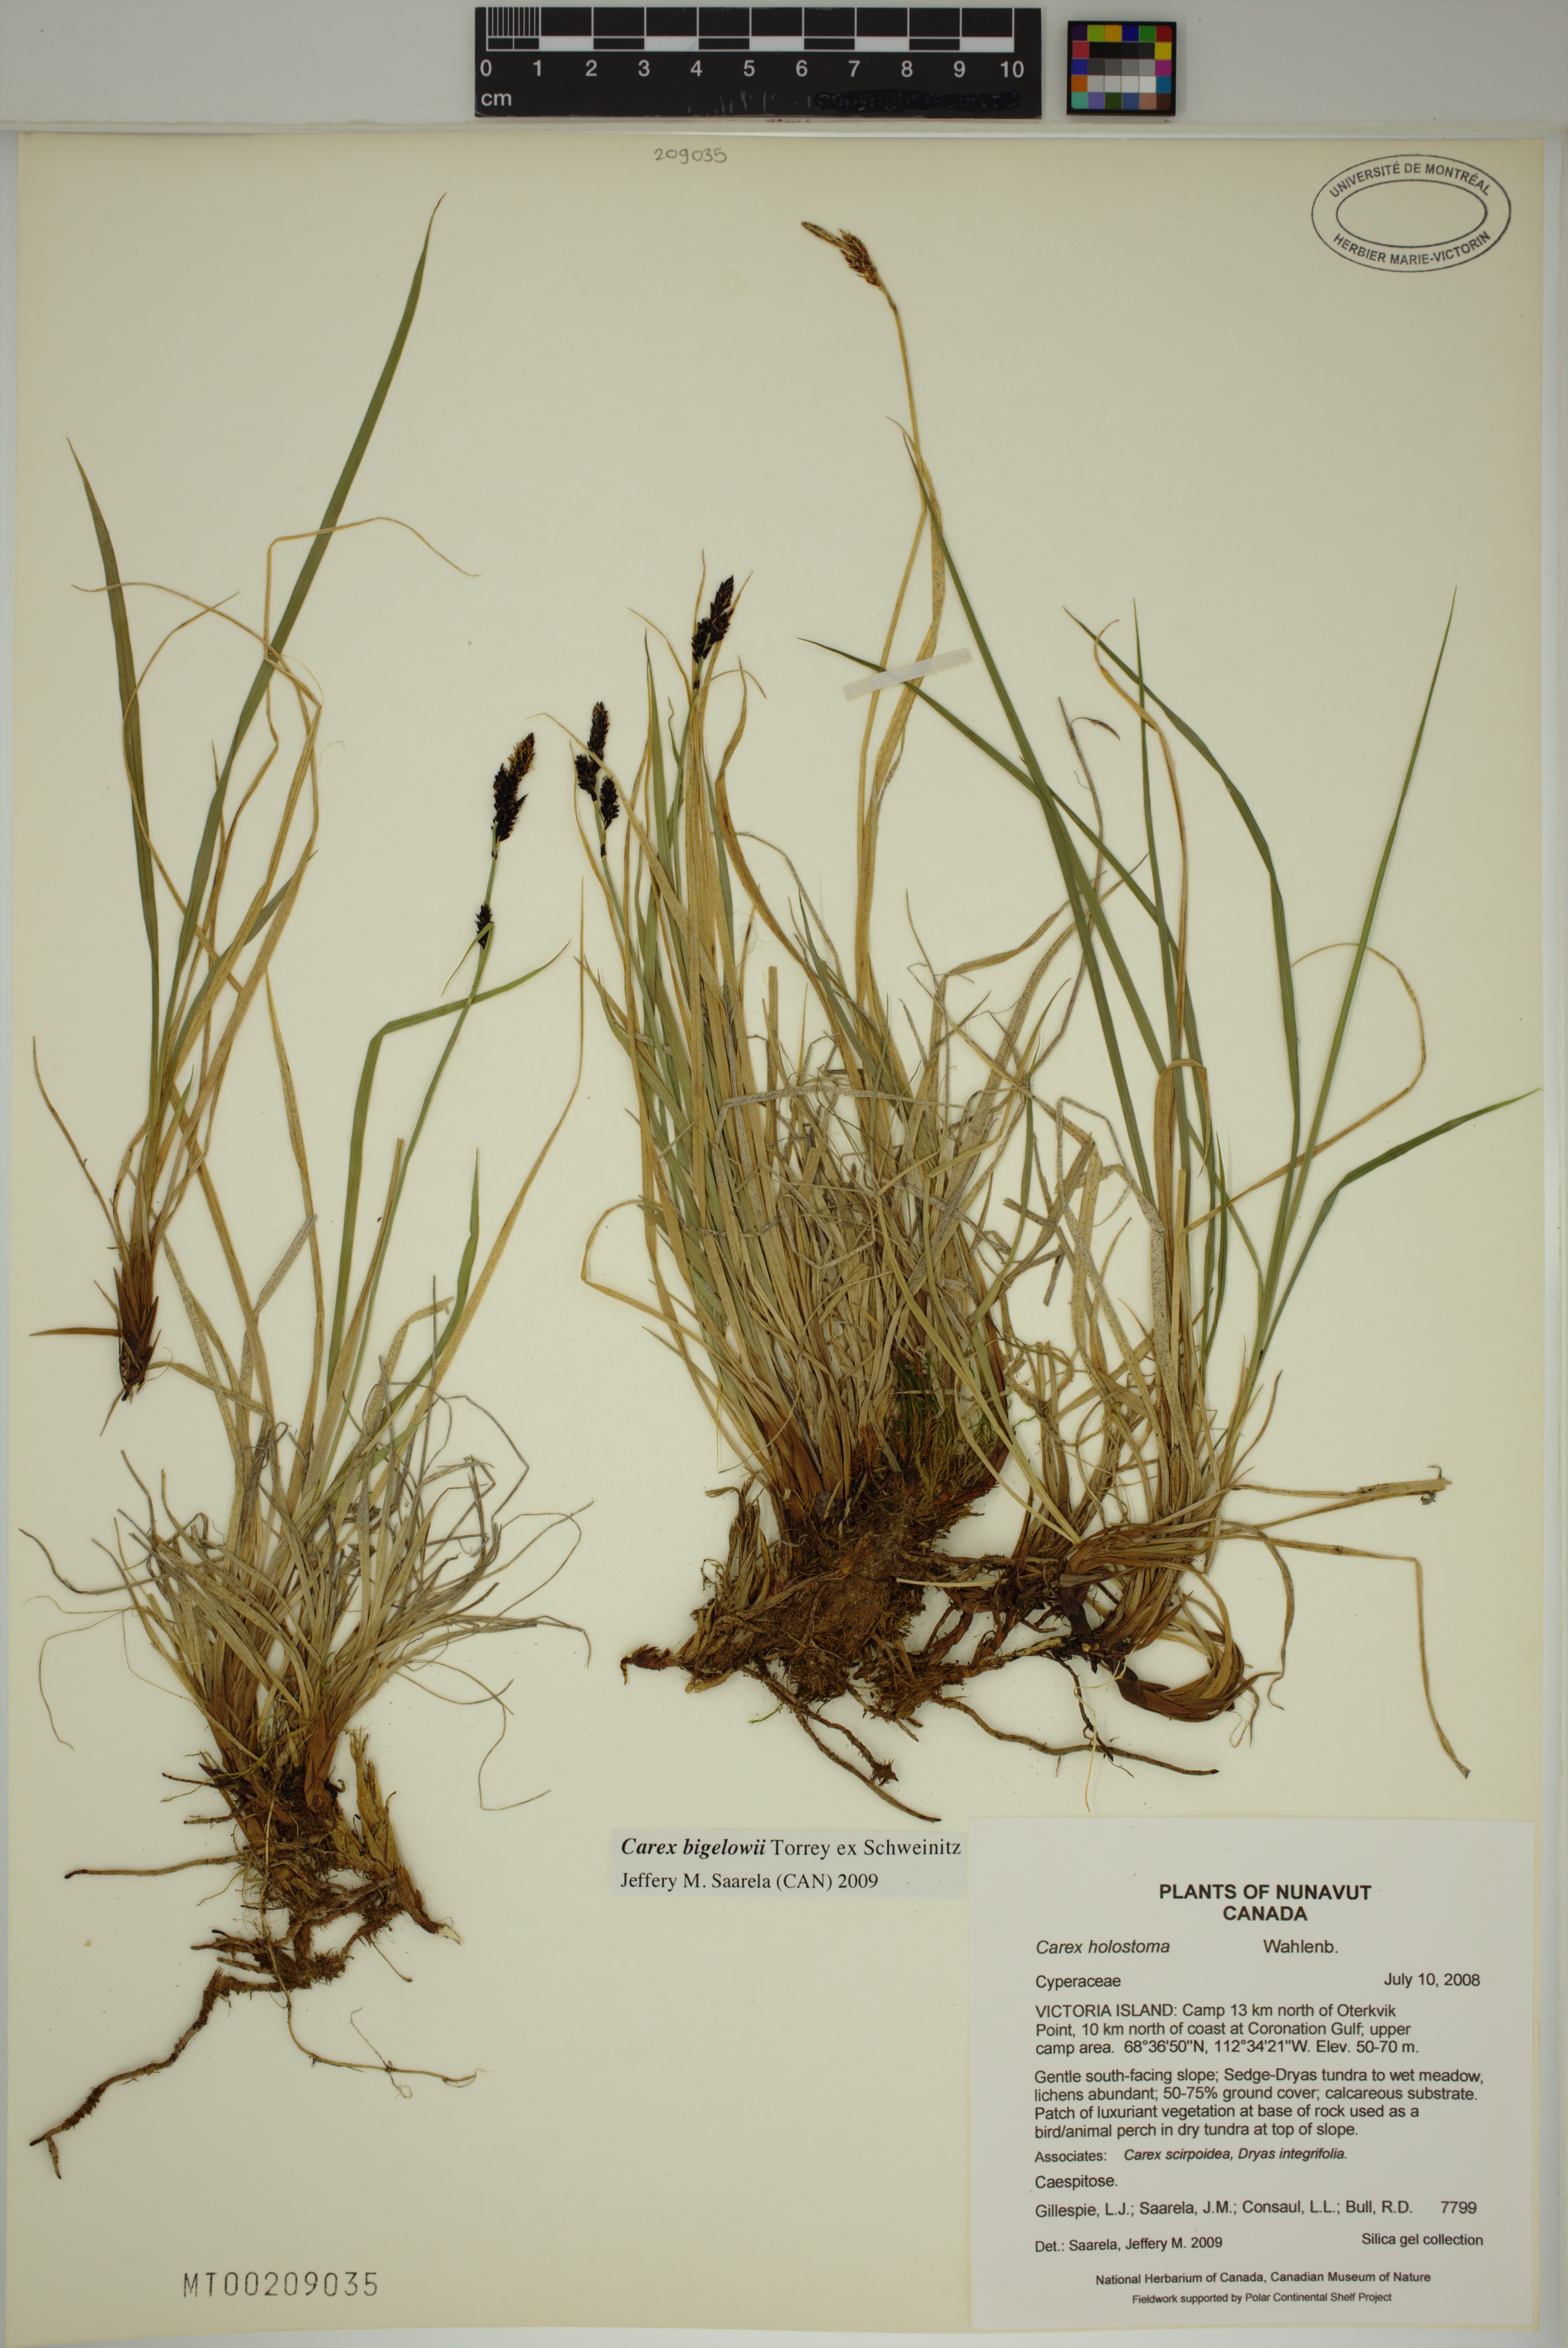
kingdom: Plantae
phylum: Tracheophyta
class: Liliopsida
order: Poales
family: Cyperaceae
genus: Carex
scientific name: Carex bigelowii
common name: Stiff sedge
